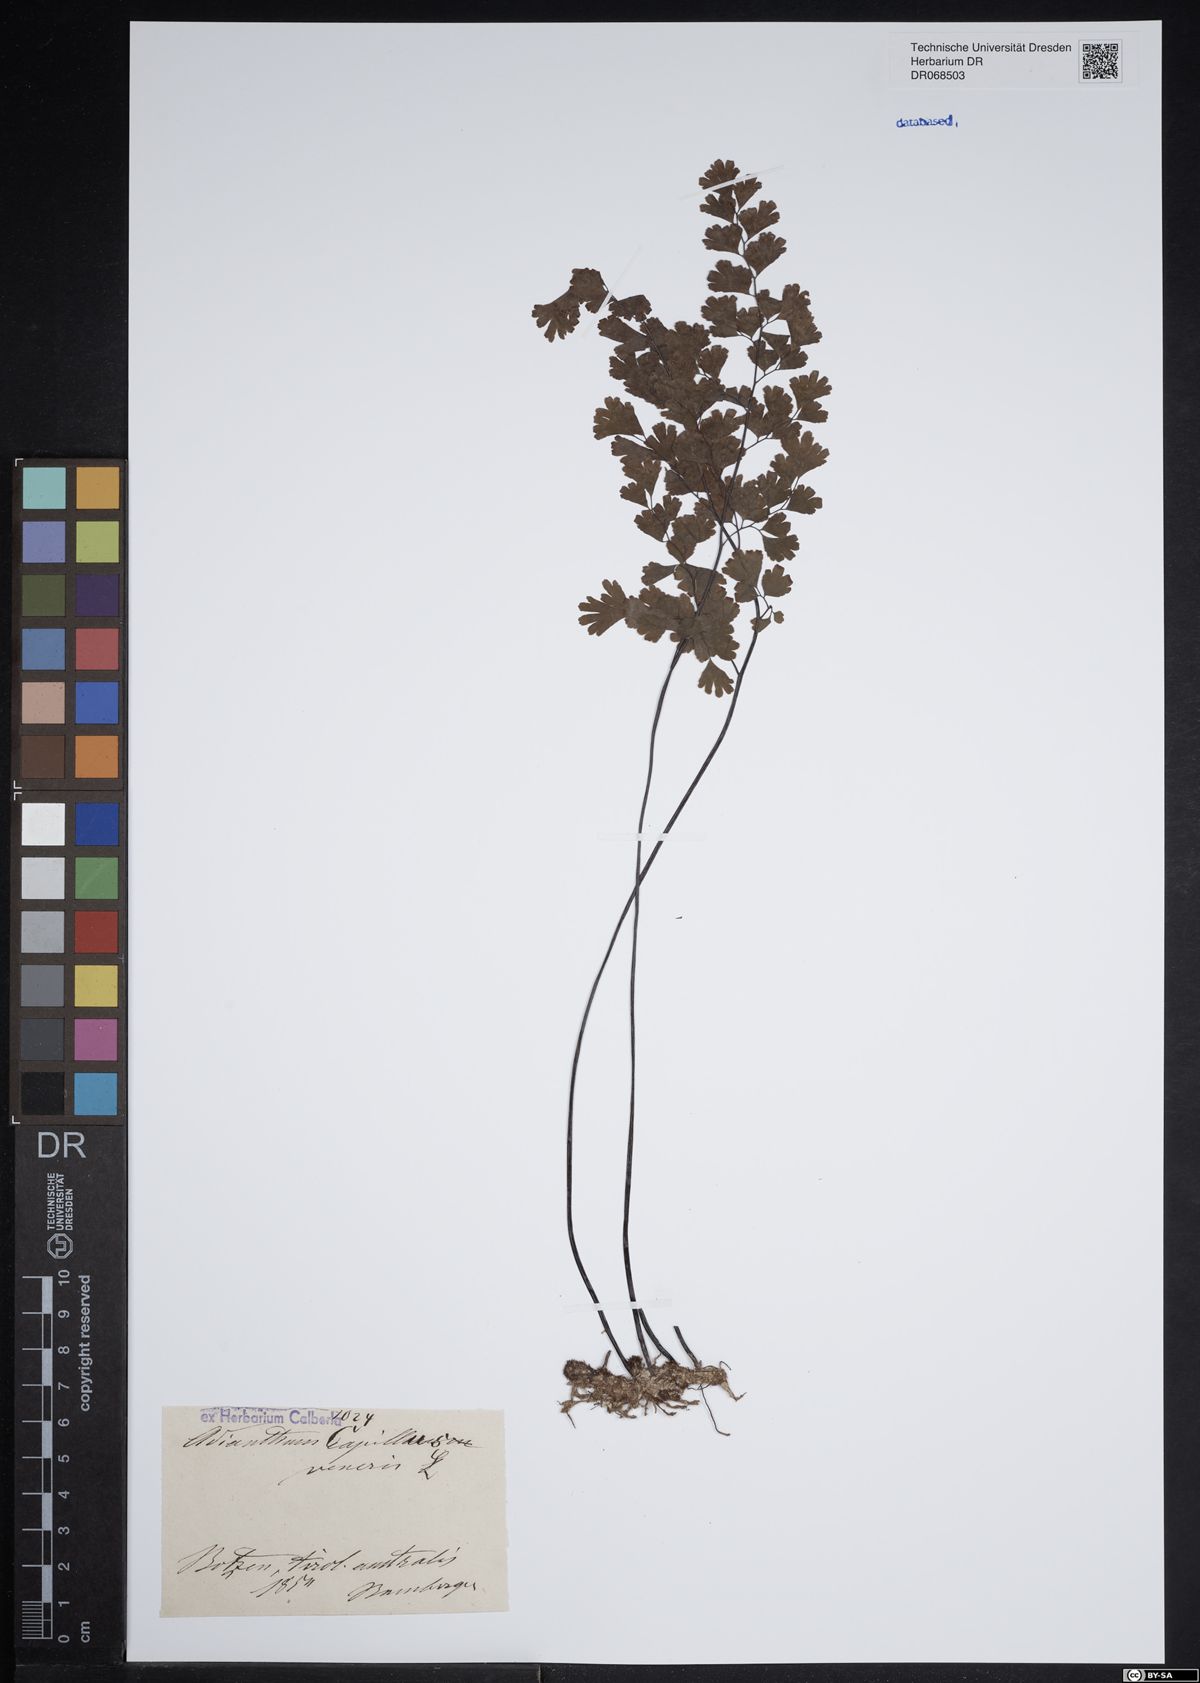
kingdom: Plantae
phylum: Tracheophyta
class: Polypodiopsida
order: Polypodiales
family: Pteridaceae
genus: Adiantum
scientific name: Adiantum capillus-veneris
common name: Maidenhair fern
